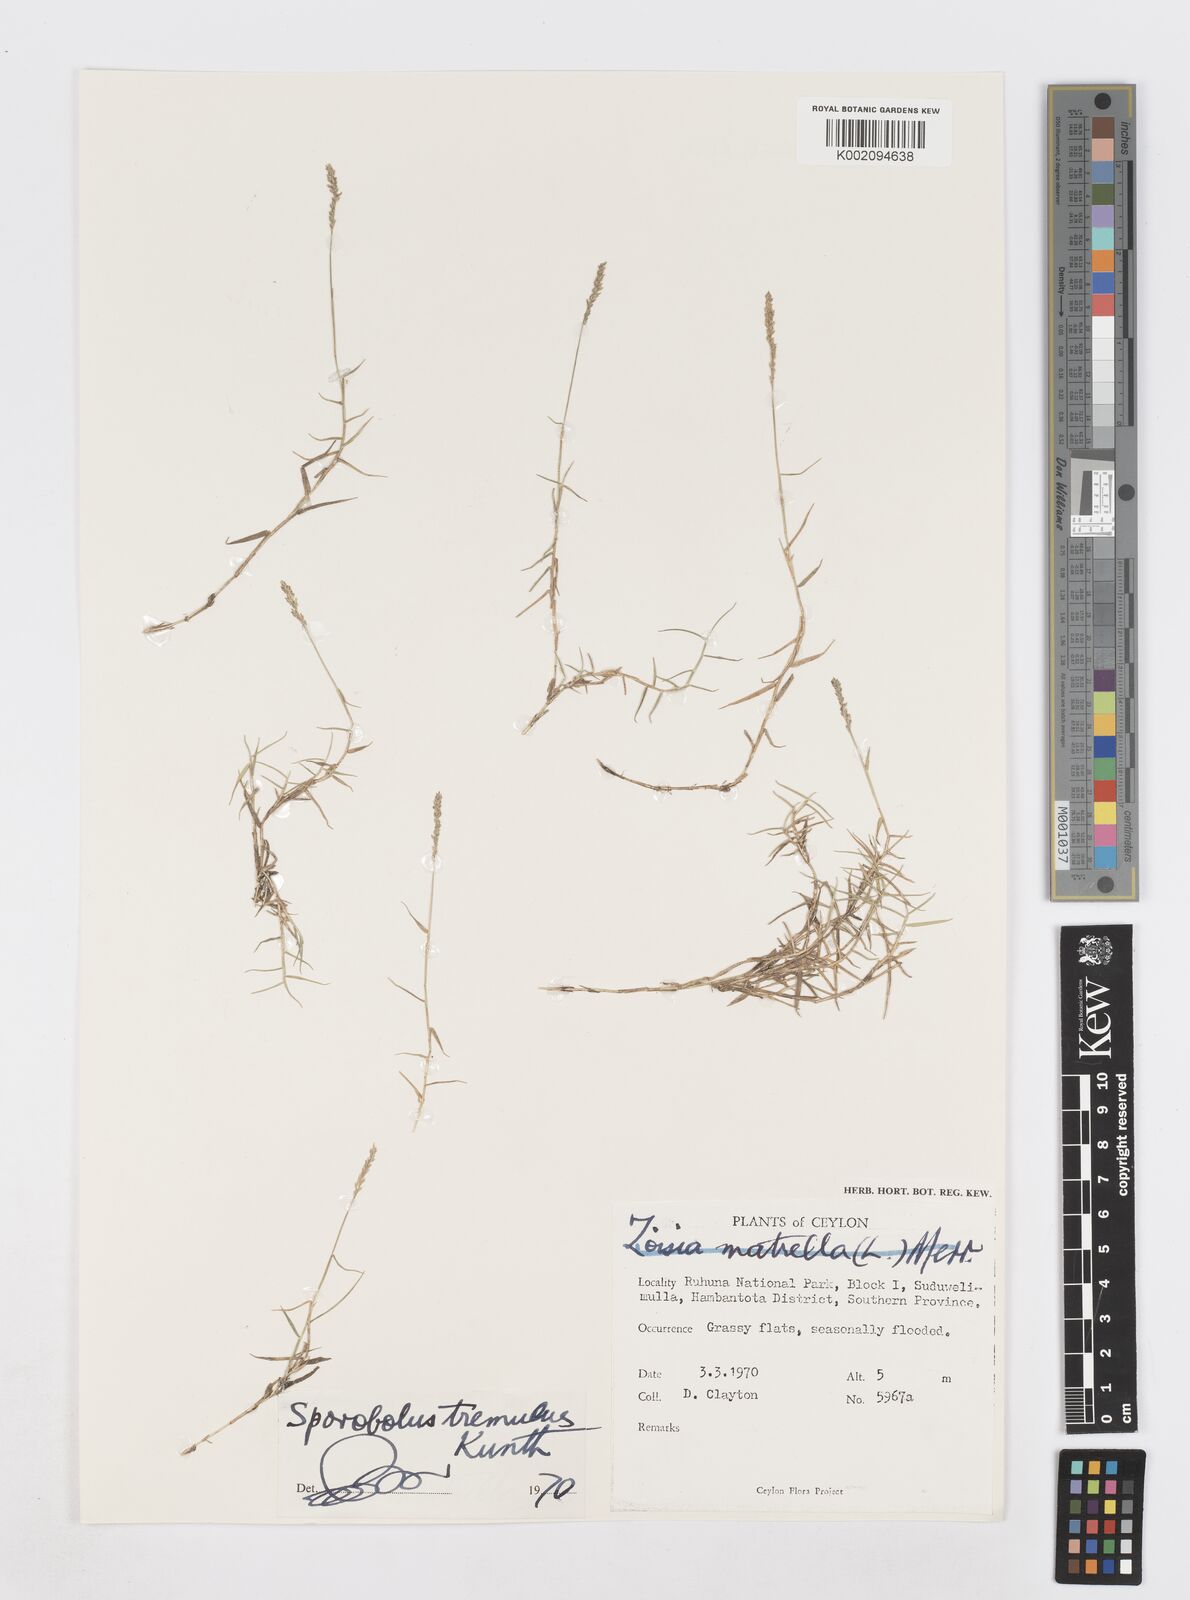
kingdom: Plantae
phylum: Tracheophyta
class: Liliopsida
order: Poales
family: Poaceae
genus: Sporobolus
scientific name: Sporobolus virginicus
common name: Beach dropseed
